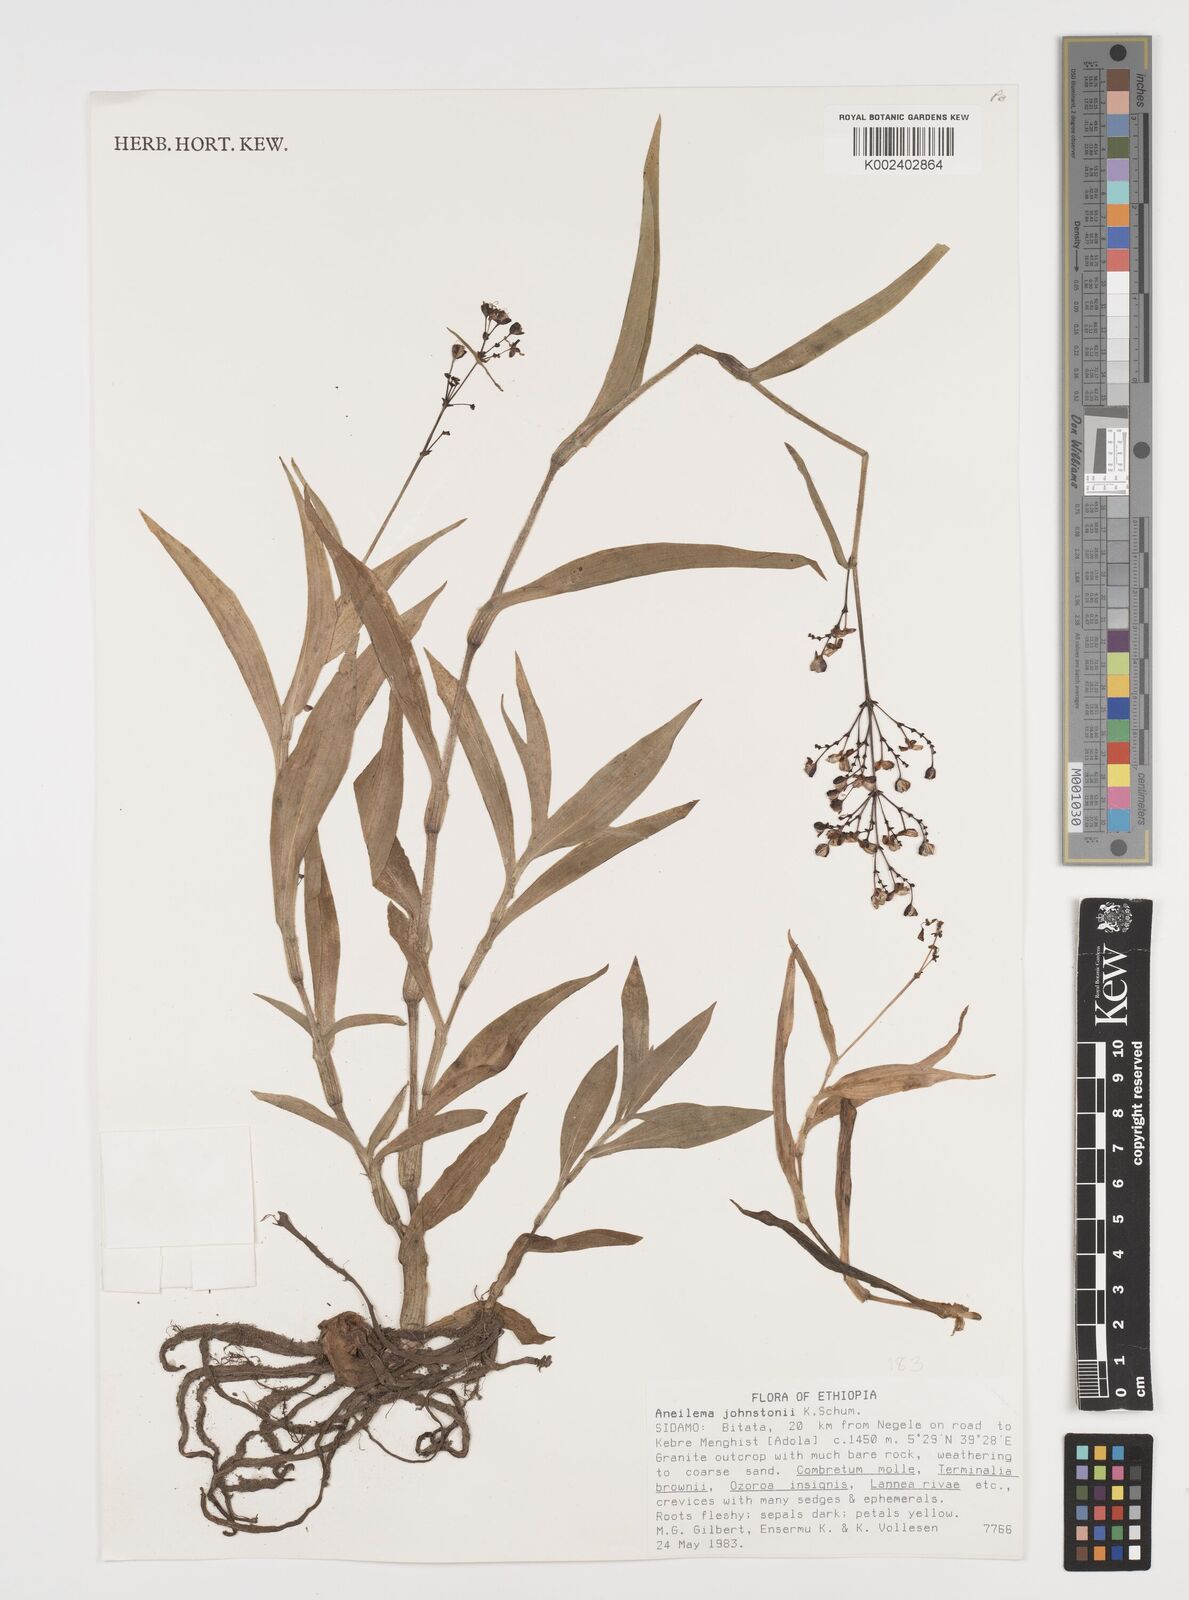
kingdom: Plantae
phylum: Tracheophyta
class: Liliopsida
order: Commelinales
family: Commelinaceae
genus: Aneilema
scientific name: Aneilema johnstonii
